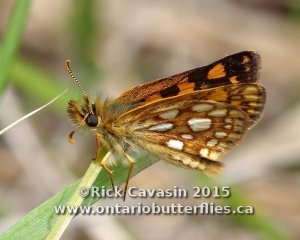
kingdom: Animalia
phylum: Arthropoda
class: Insecta
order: Lepidoptera
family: Hesperiidae
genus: Carterocephalus
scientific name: Carterocephalus palaemon
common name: Chequered Skipper
